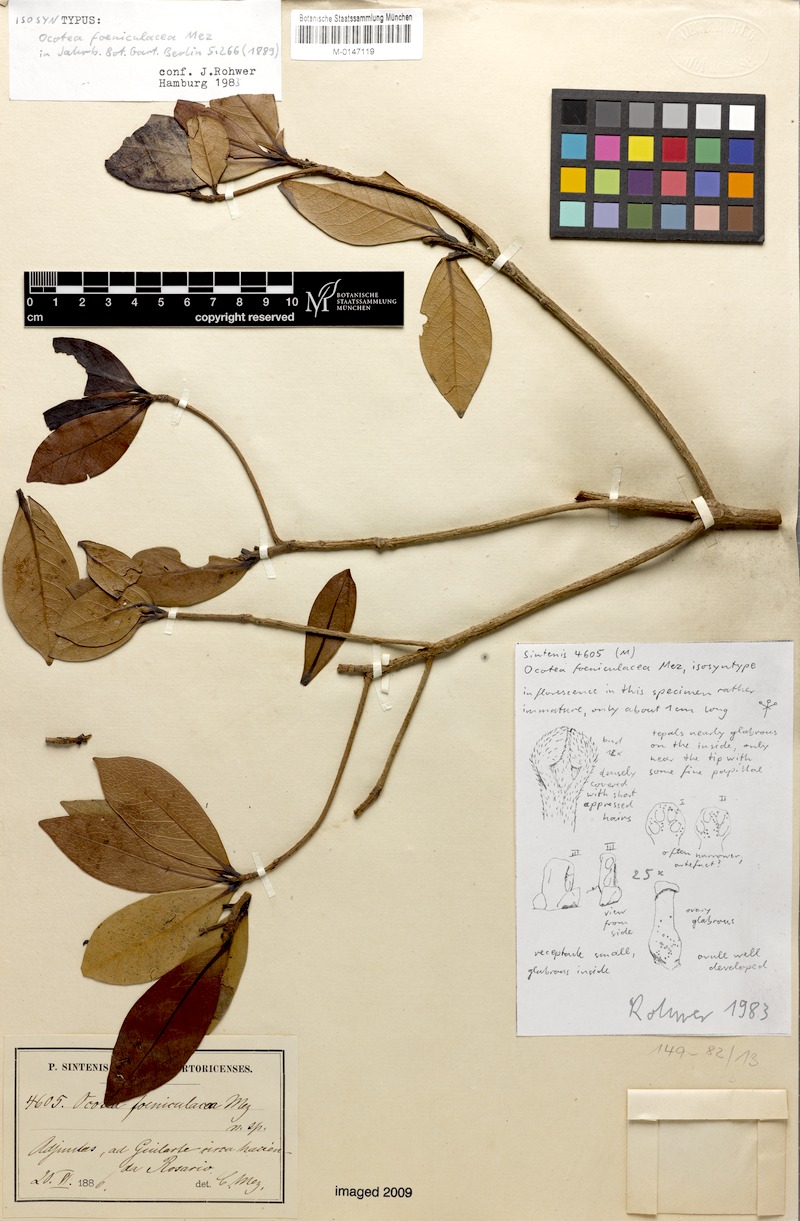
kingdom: Plantae
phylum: Tracheophyta
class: Magnoliopsida
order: Laurales
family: Lauraceae
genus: Ocotea
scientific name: Ocotea foeniculacea
